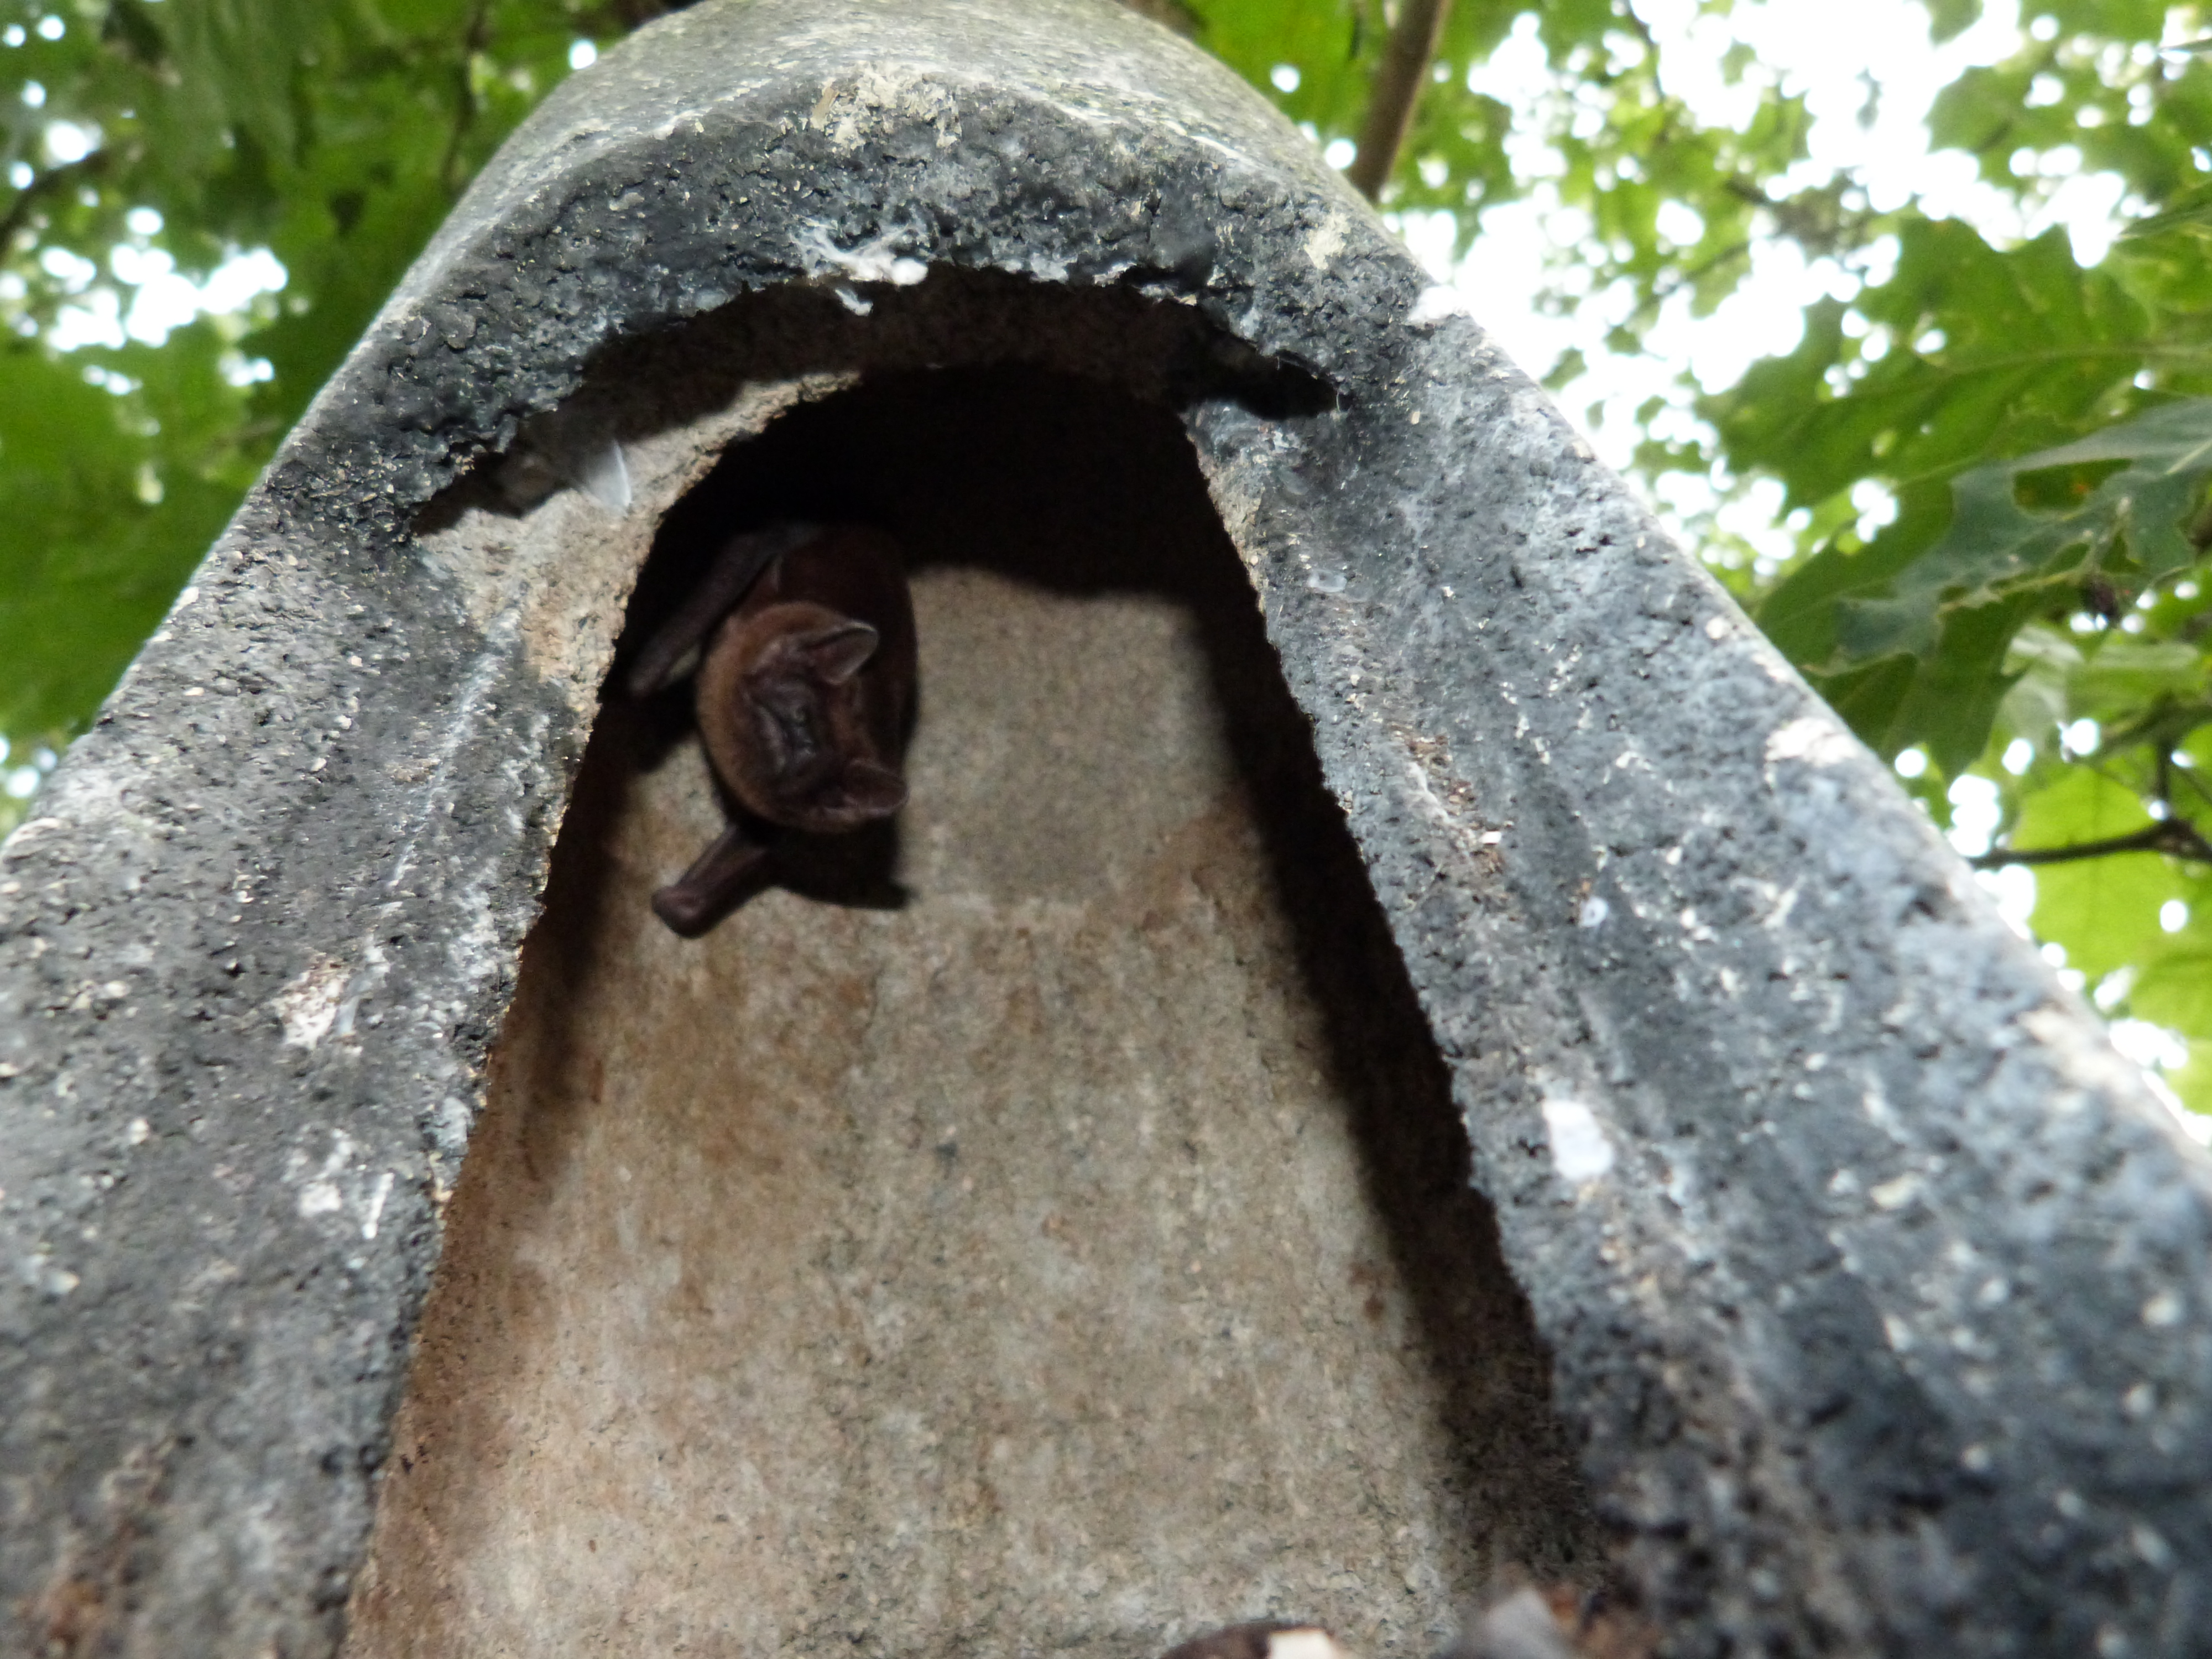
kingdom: Animalia
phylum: Chordata
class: Mammalia
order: Chiroptera
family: Vespertilionidae
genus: Nyctalus
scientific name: Nyctalus noctula
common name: Noctule
